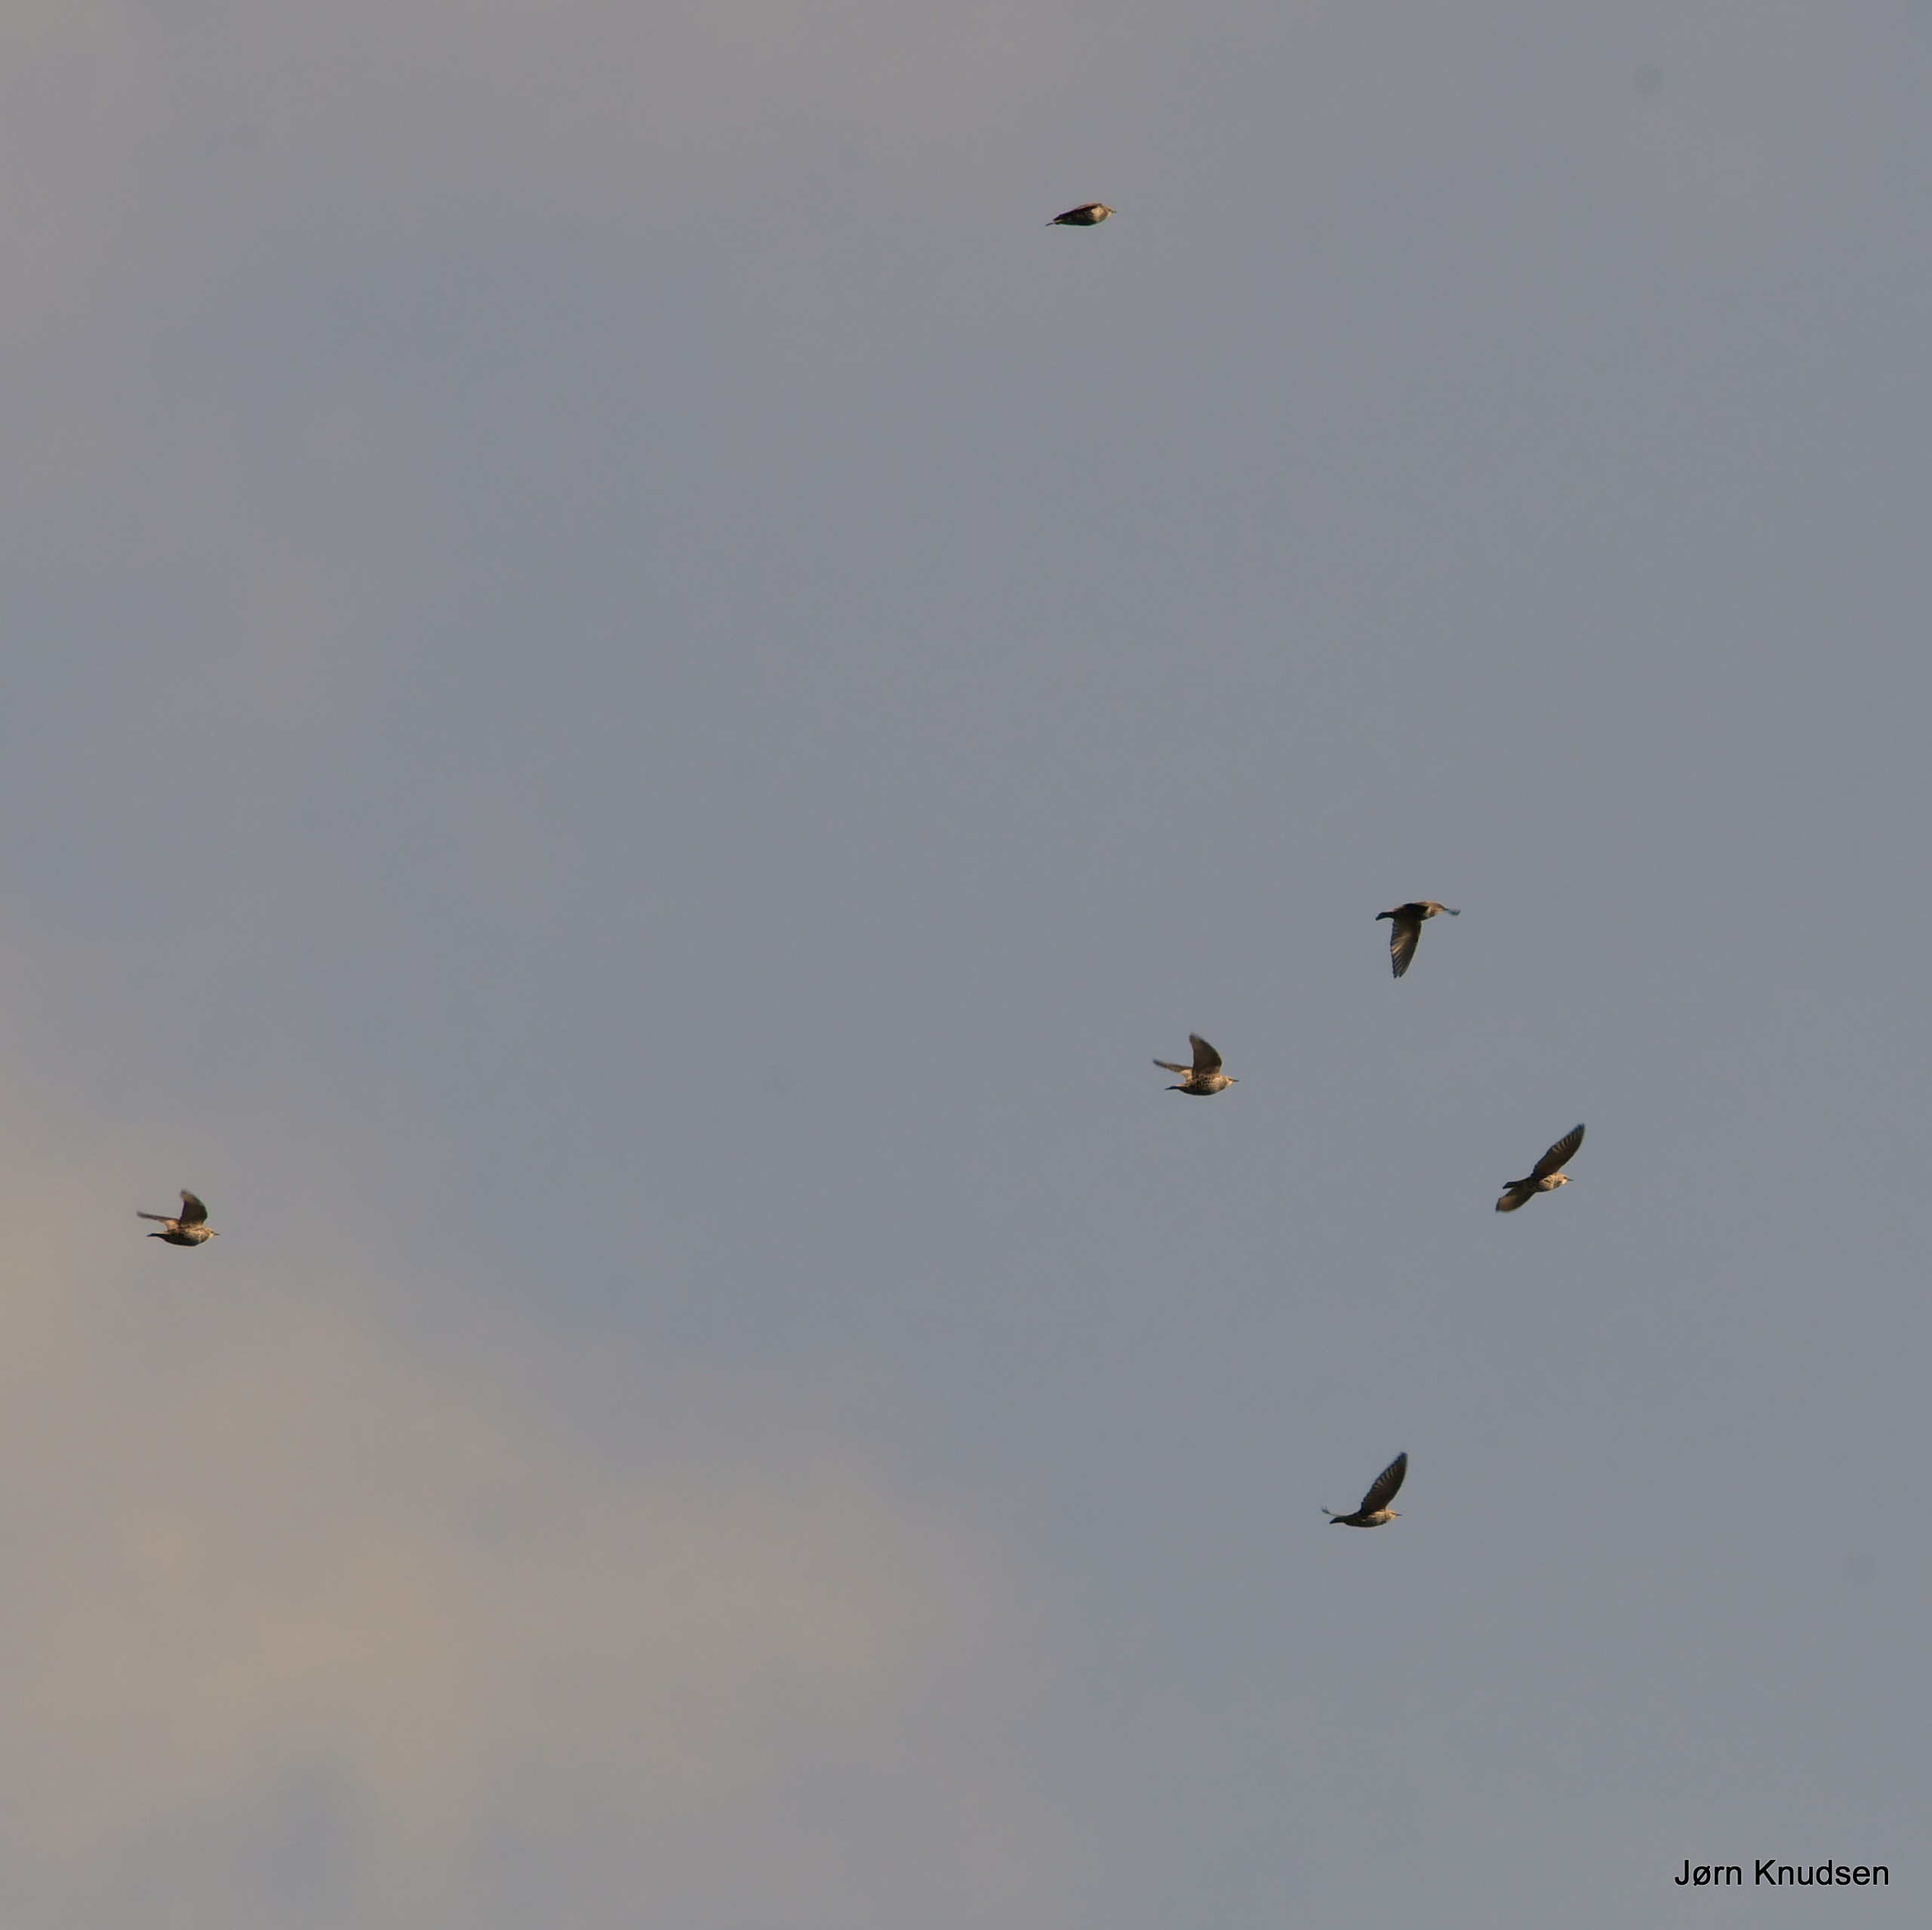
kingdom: Animalia
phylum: Chordata
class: Aves
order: Passeriformes
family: Sturnidae
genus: Sturnus
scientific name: Sturnus vulgaris
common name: Stær
